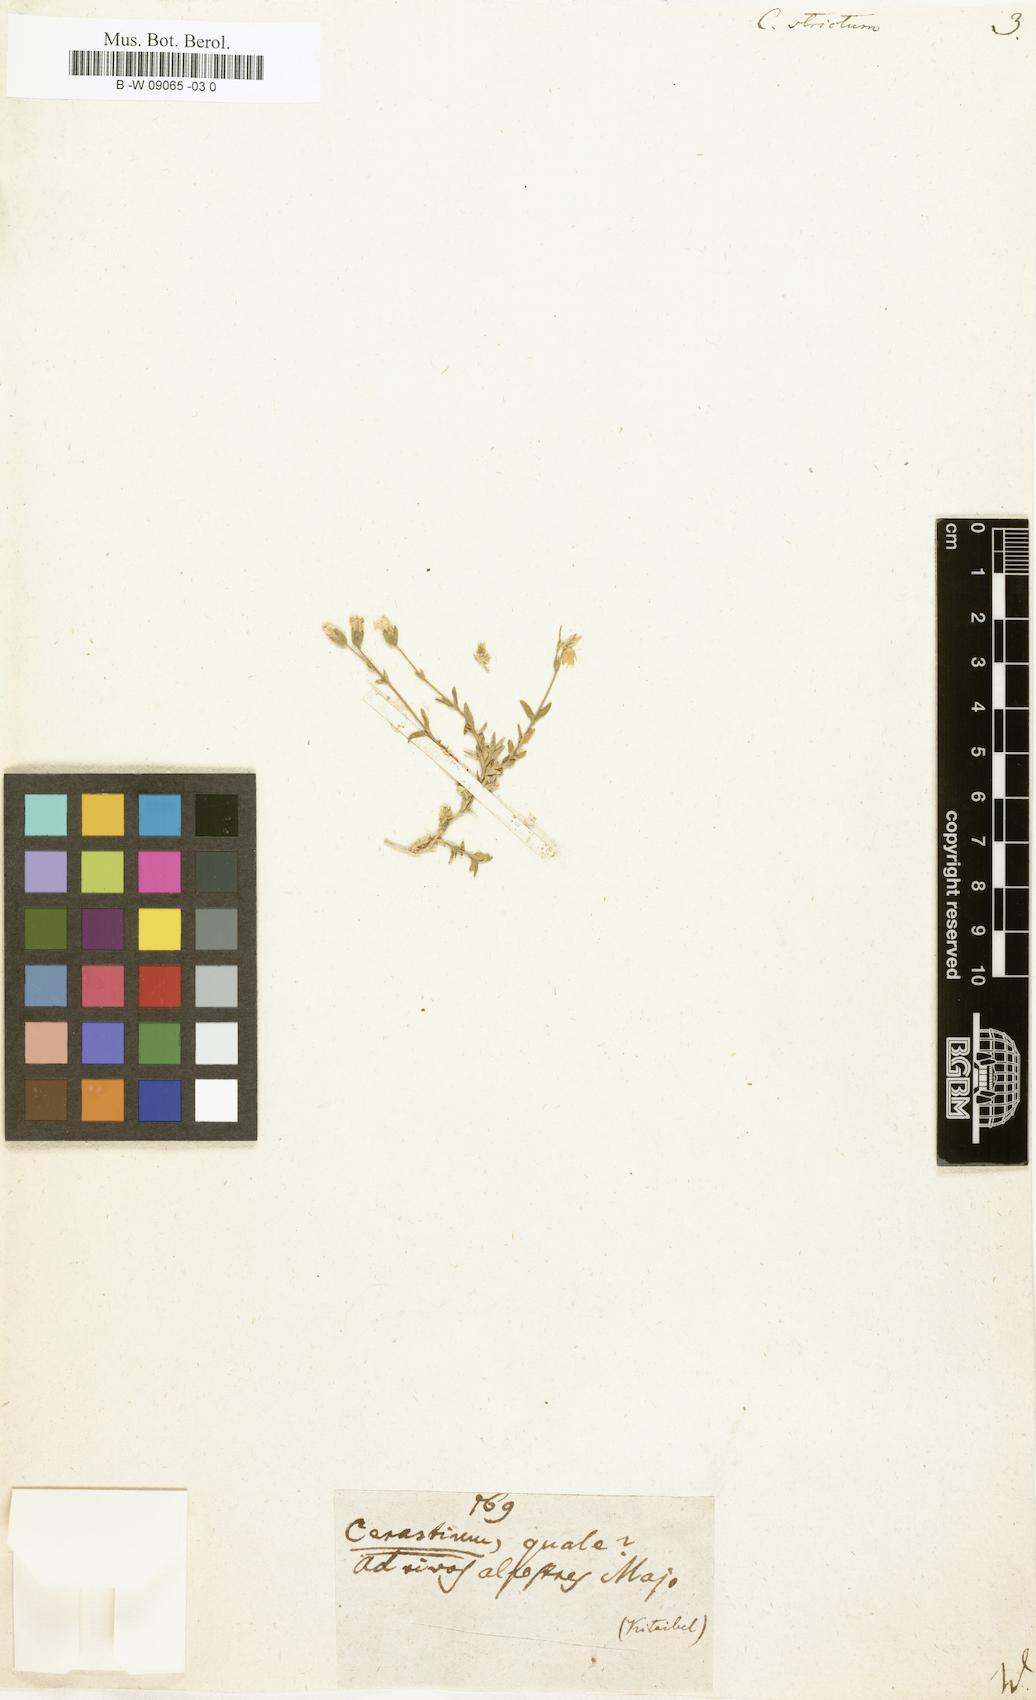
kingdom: Plantae
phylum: Tracheophyta
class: Magnoliopsida
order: Caryophyllales
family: Caryophyllaceae
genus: Cerastium
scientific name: Cerastium elongatum
